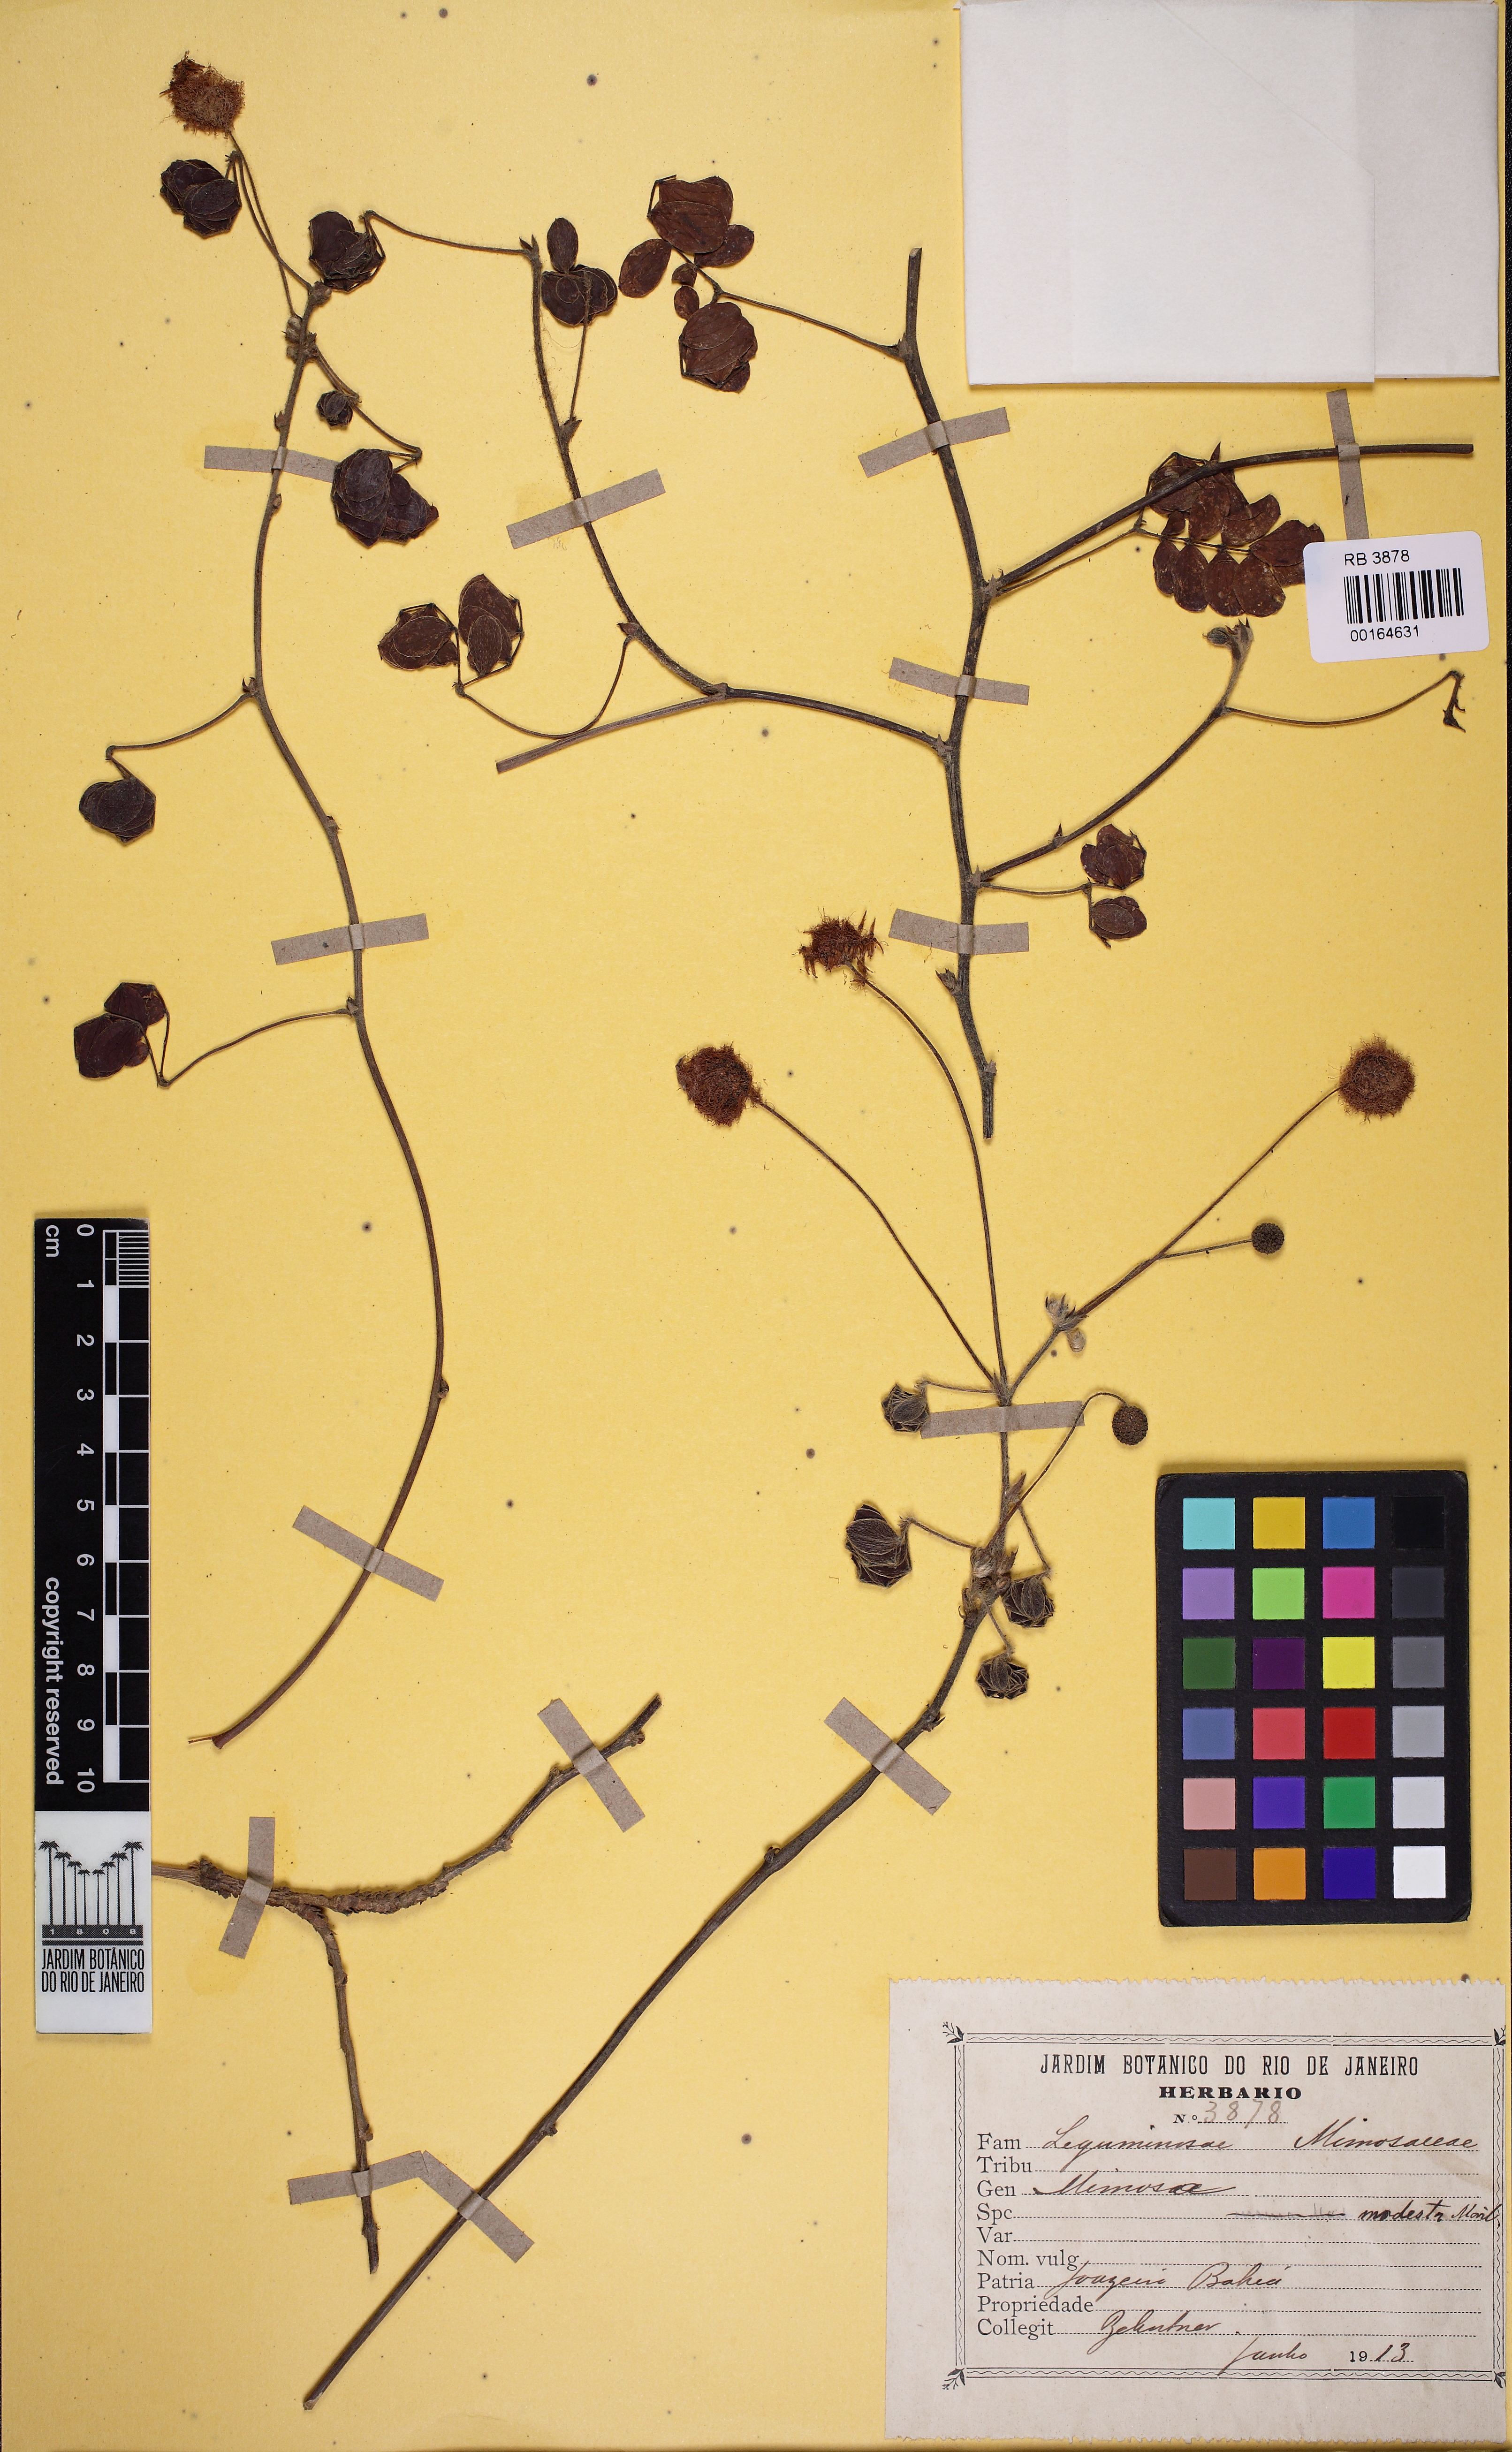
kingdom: Plantae
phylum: Tracheophyta
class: Magnoliopsida
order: Fabales
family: Fabaceae
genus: Mimosa
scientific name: Mimosa modesta
